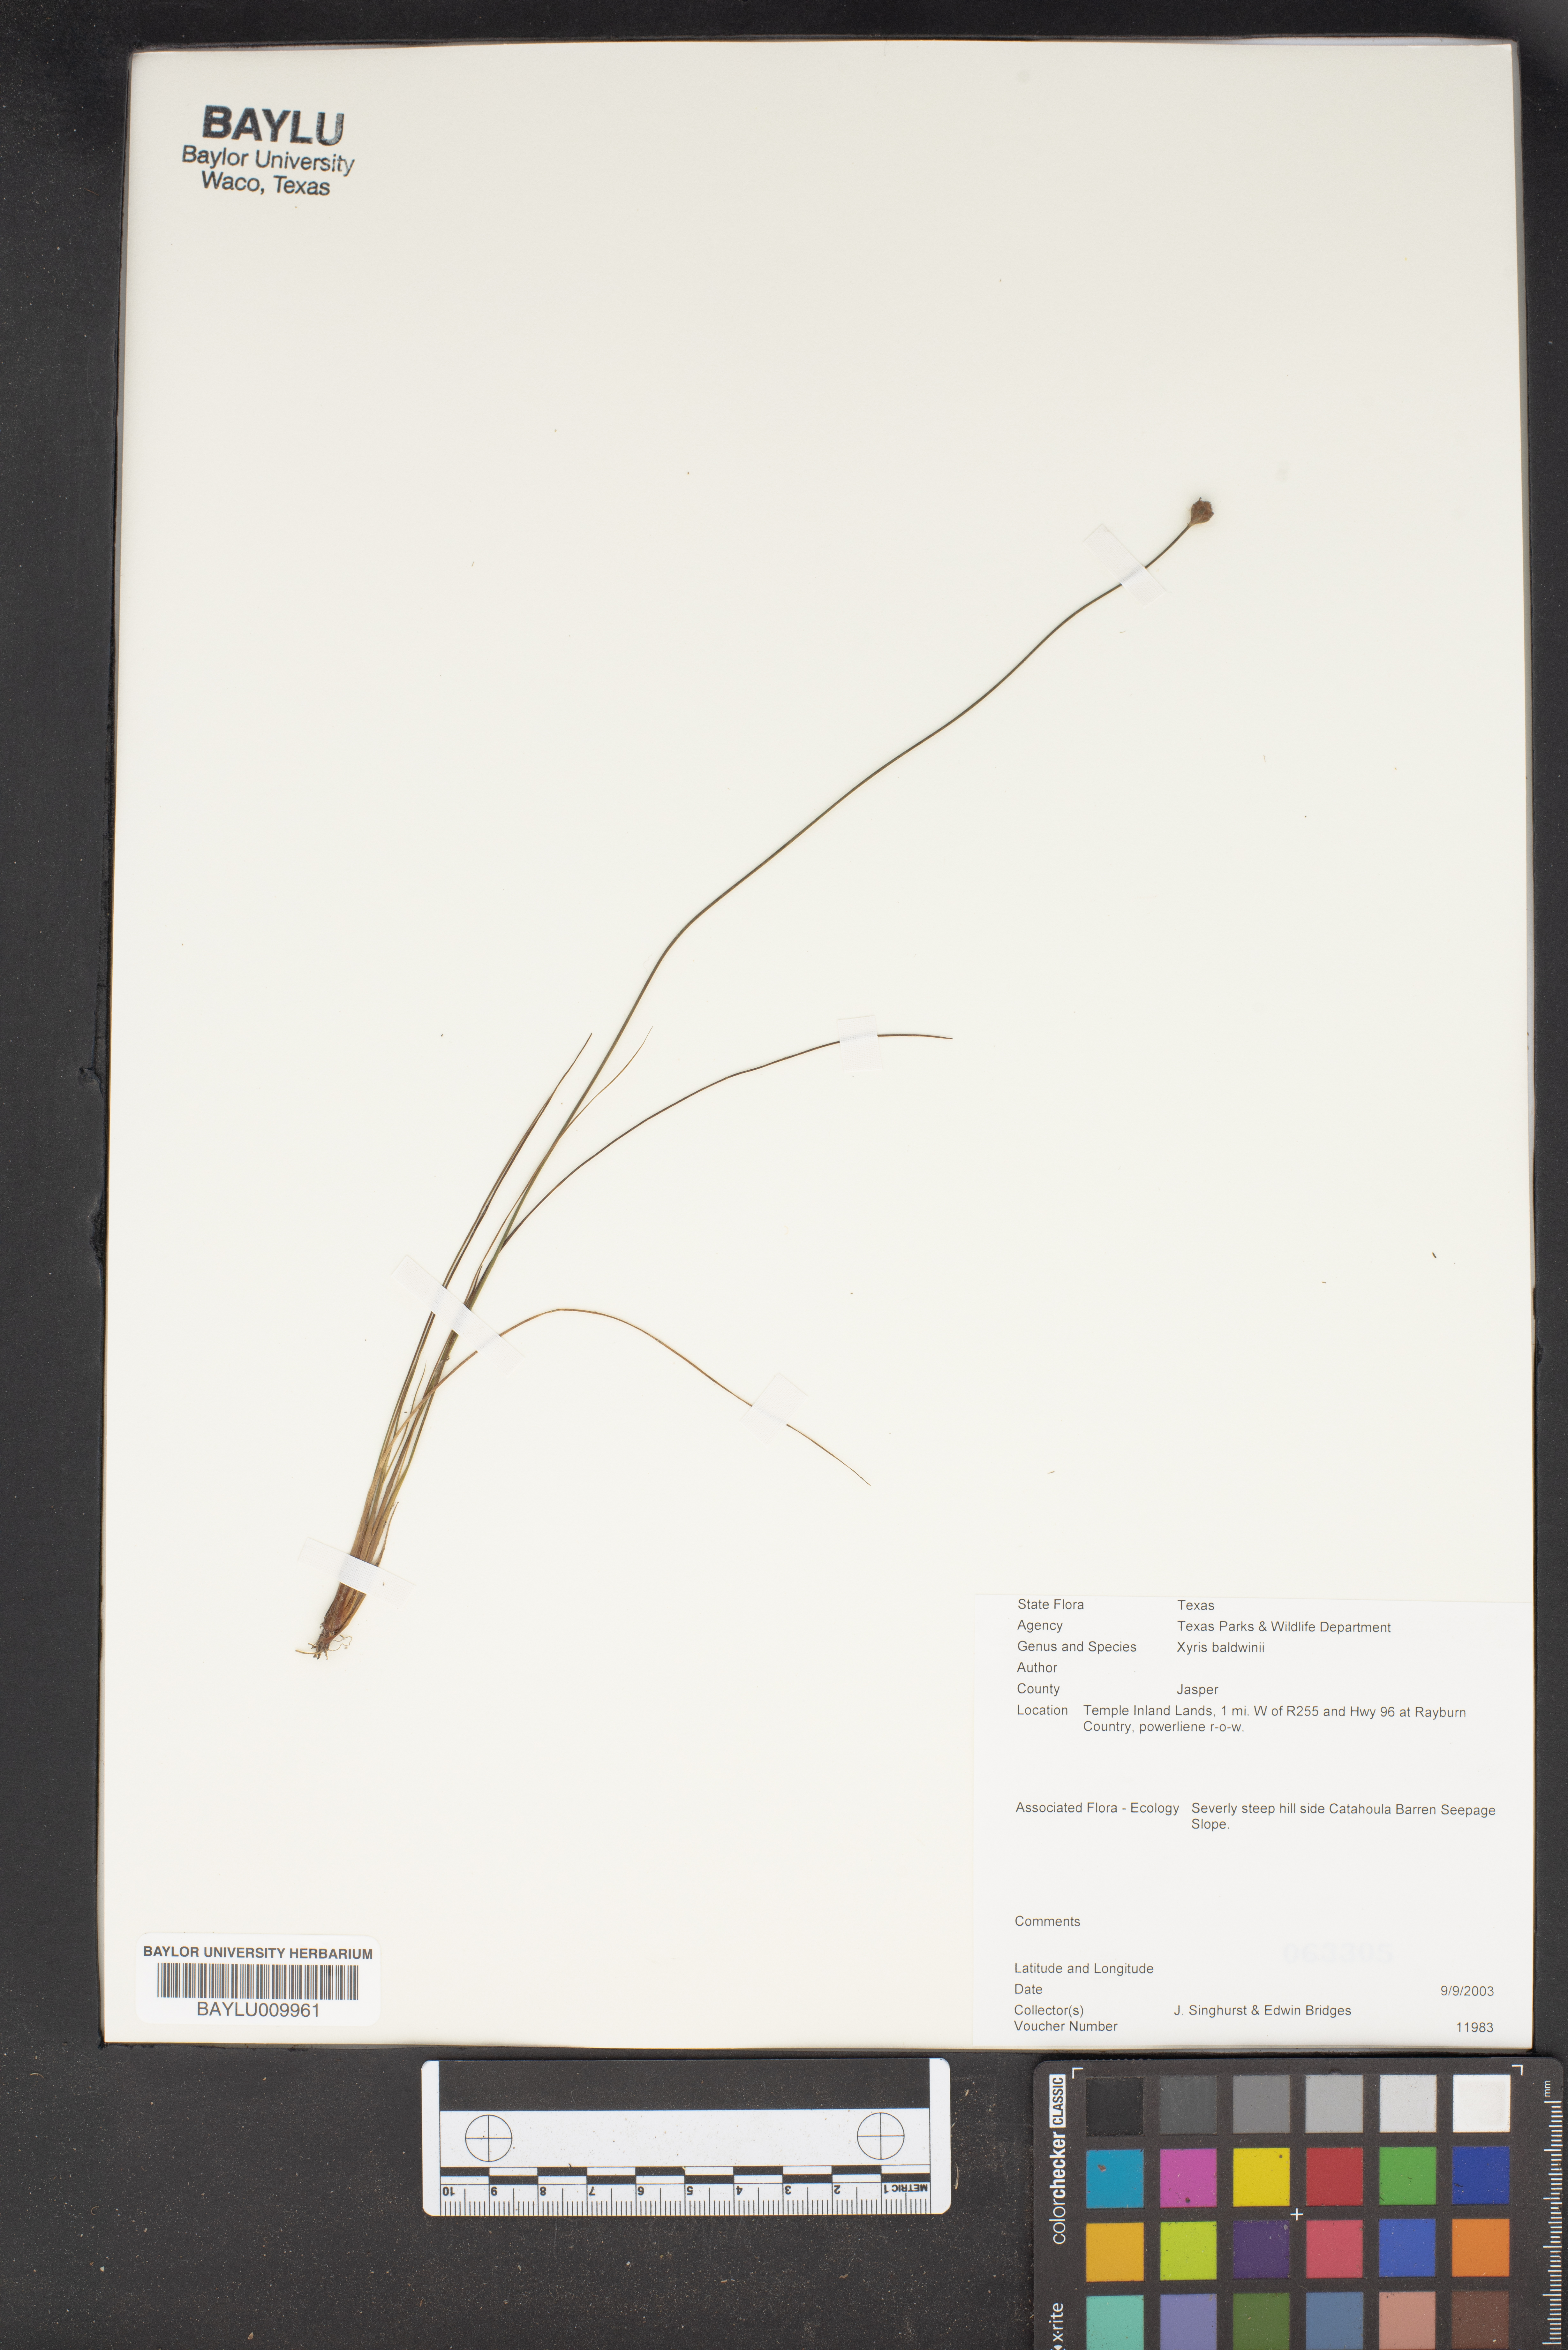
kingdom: Plantae
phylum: Tracheophyta
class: Liliopsida
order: Poales
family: Xyridaceae
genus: Xyris
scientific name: Xyris
